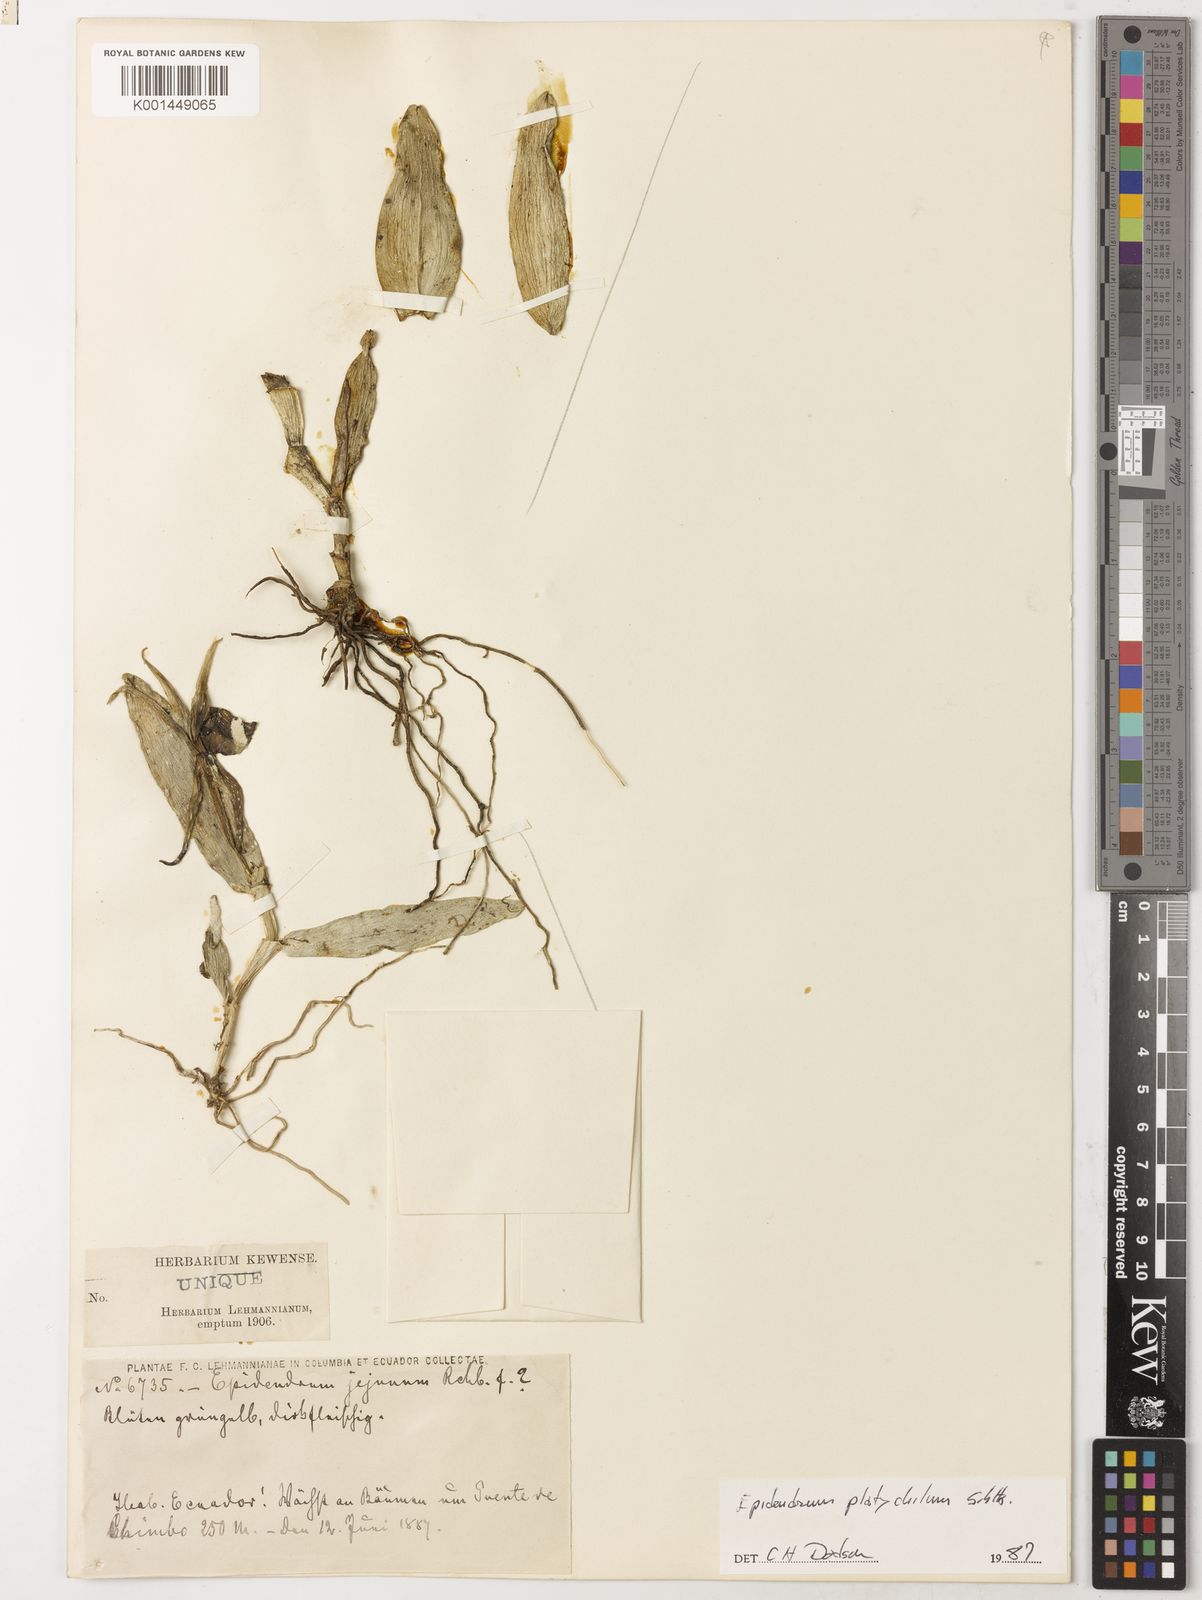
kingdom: Plantae
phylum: Tracheophyta
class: Liliopsida
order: Asparagales
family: Orchidaceae
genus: Epidendrum
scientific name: Epidendrum platychilum
